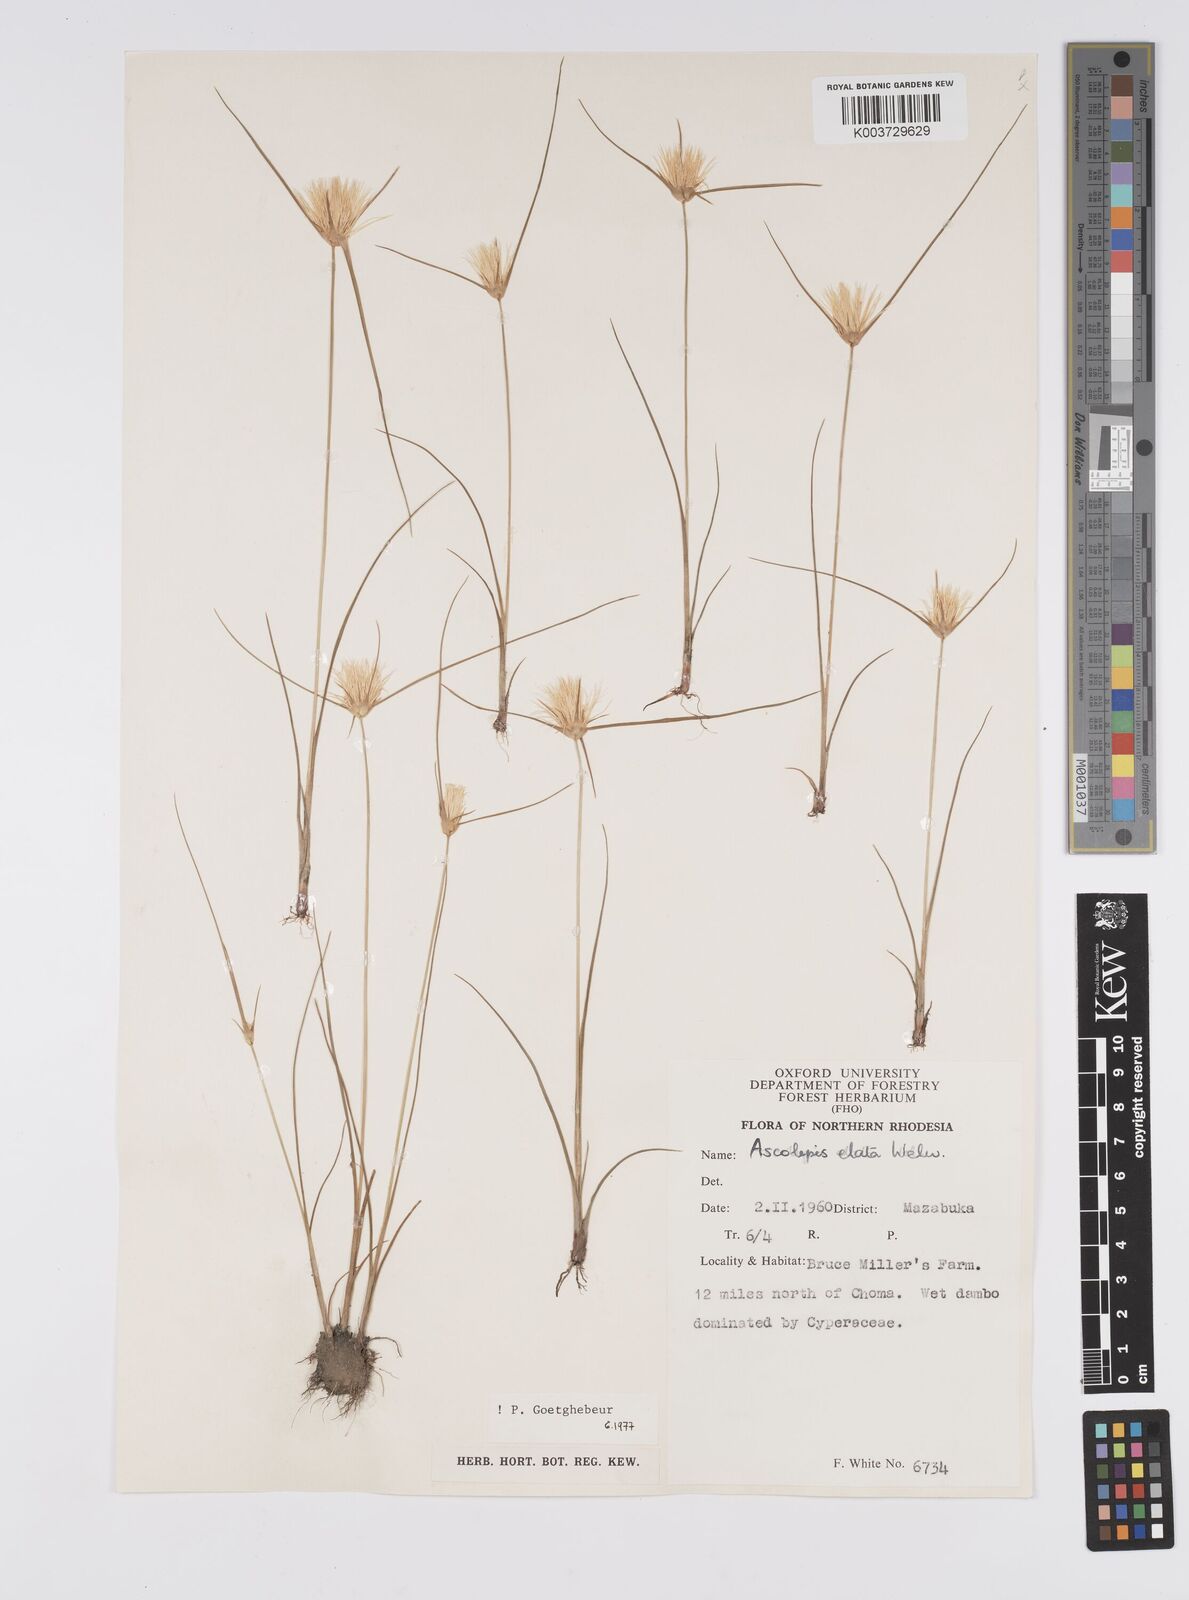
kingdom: Plantae
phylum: Tracheophyta
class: Liliopsida
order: Poales
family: Cyperaceae
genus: Cyperus
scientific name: Cyperus
